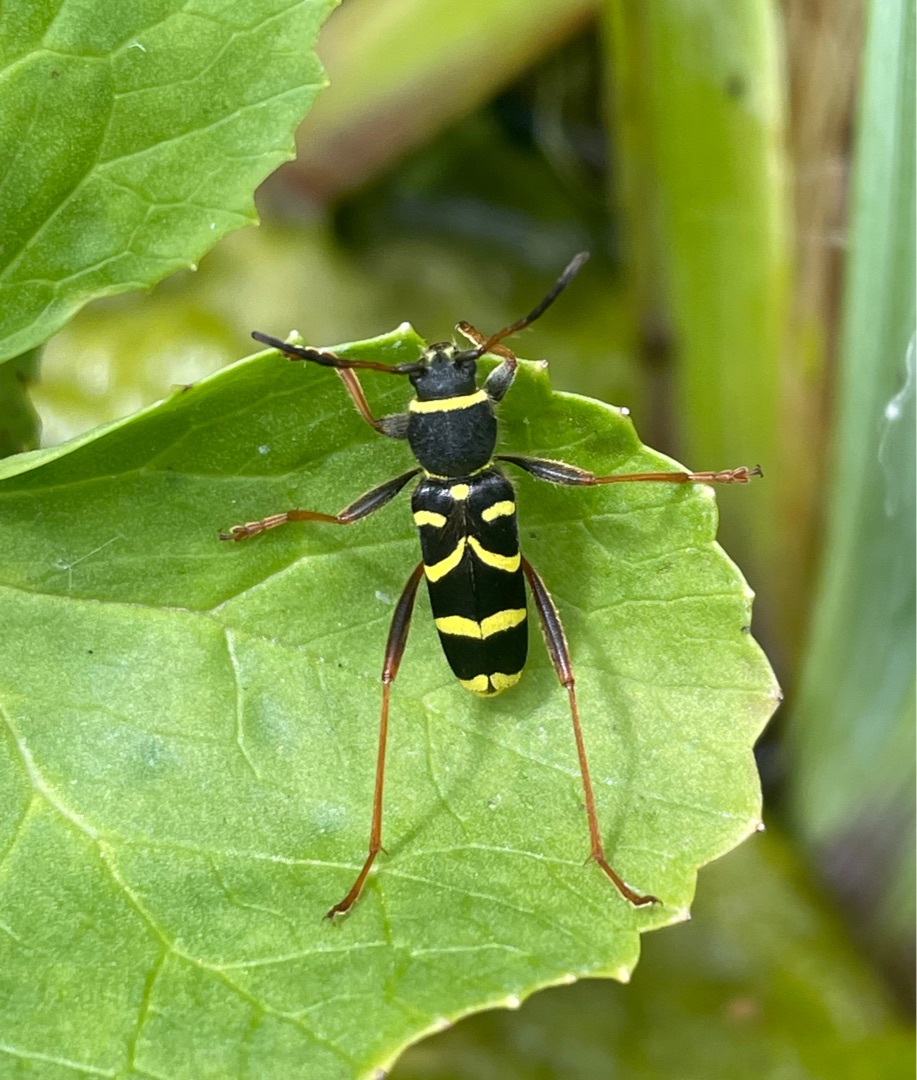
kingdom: Animalia
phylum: Arthropoda
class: Insecta
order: Coleoptera
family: Cerambycidae
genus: Clytus
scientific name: Clytus arietis
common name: Lille hvepsebuk
